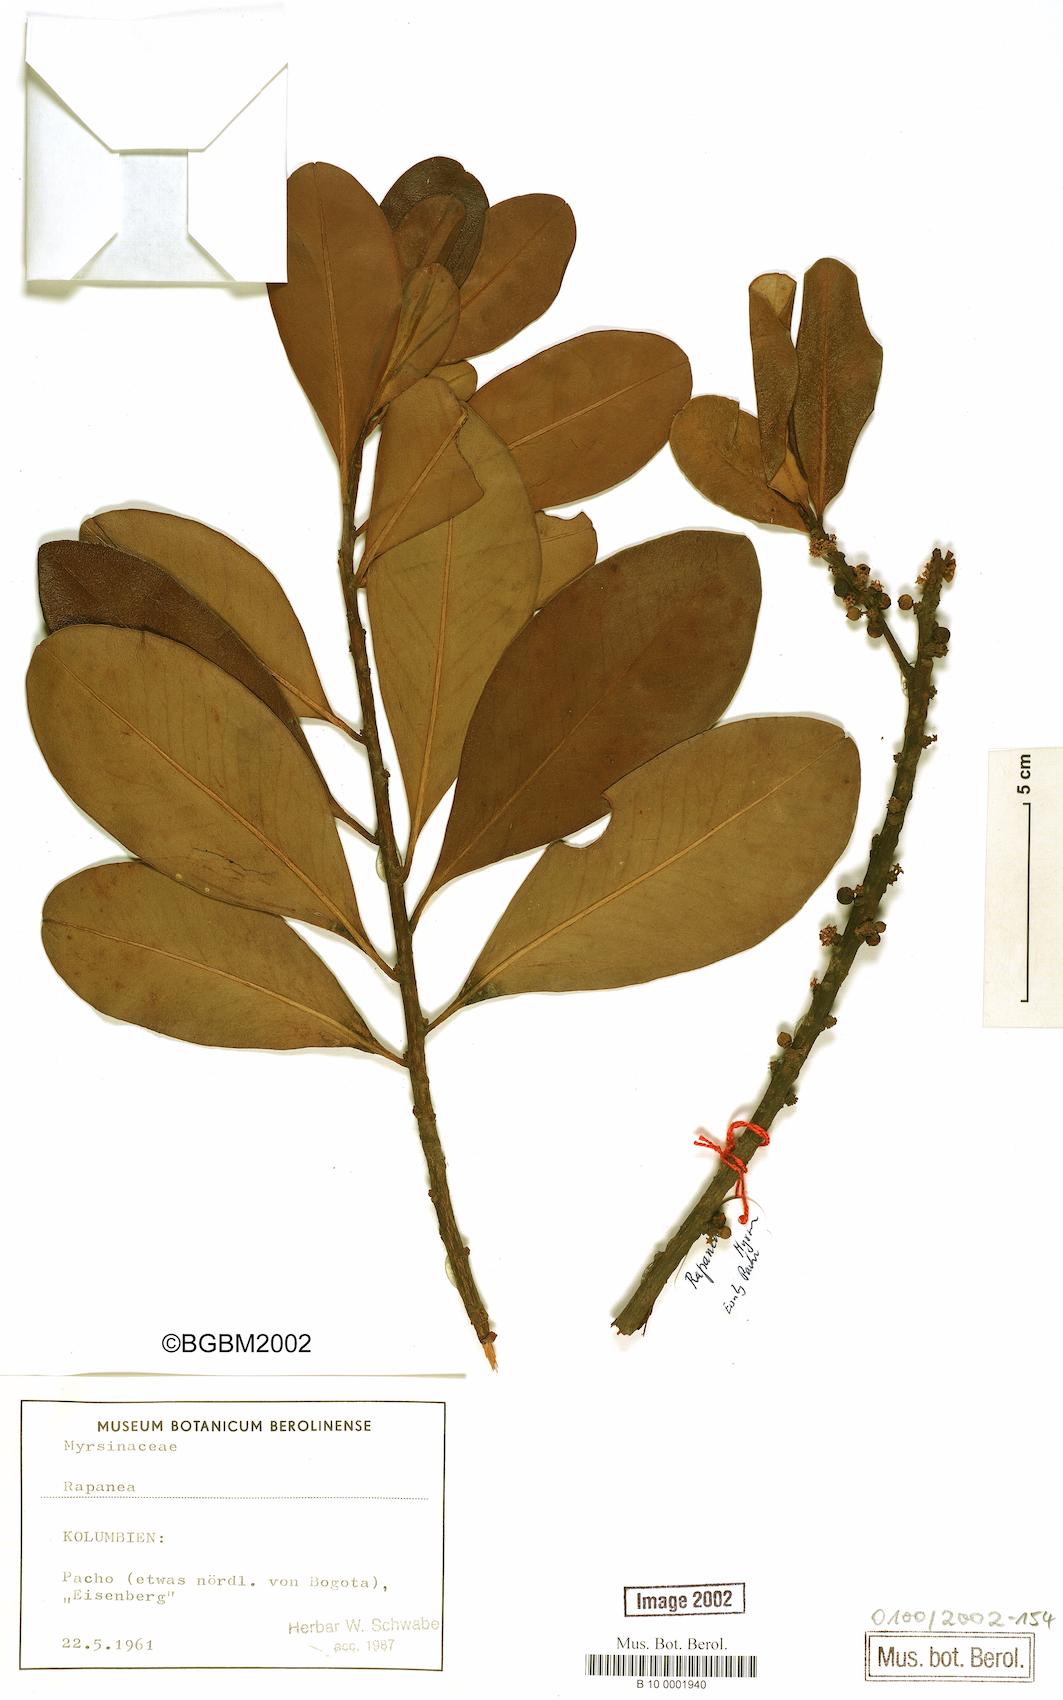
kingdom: Plantae
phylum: Tracheophyta
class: Magnoliopsida
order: Ericales
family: Primulaceae
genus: Myrsine
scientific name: Myrsine
